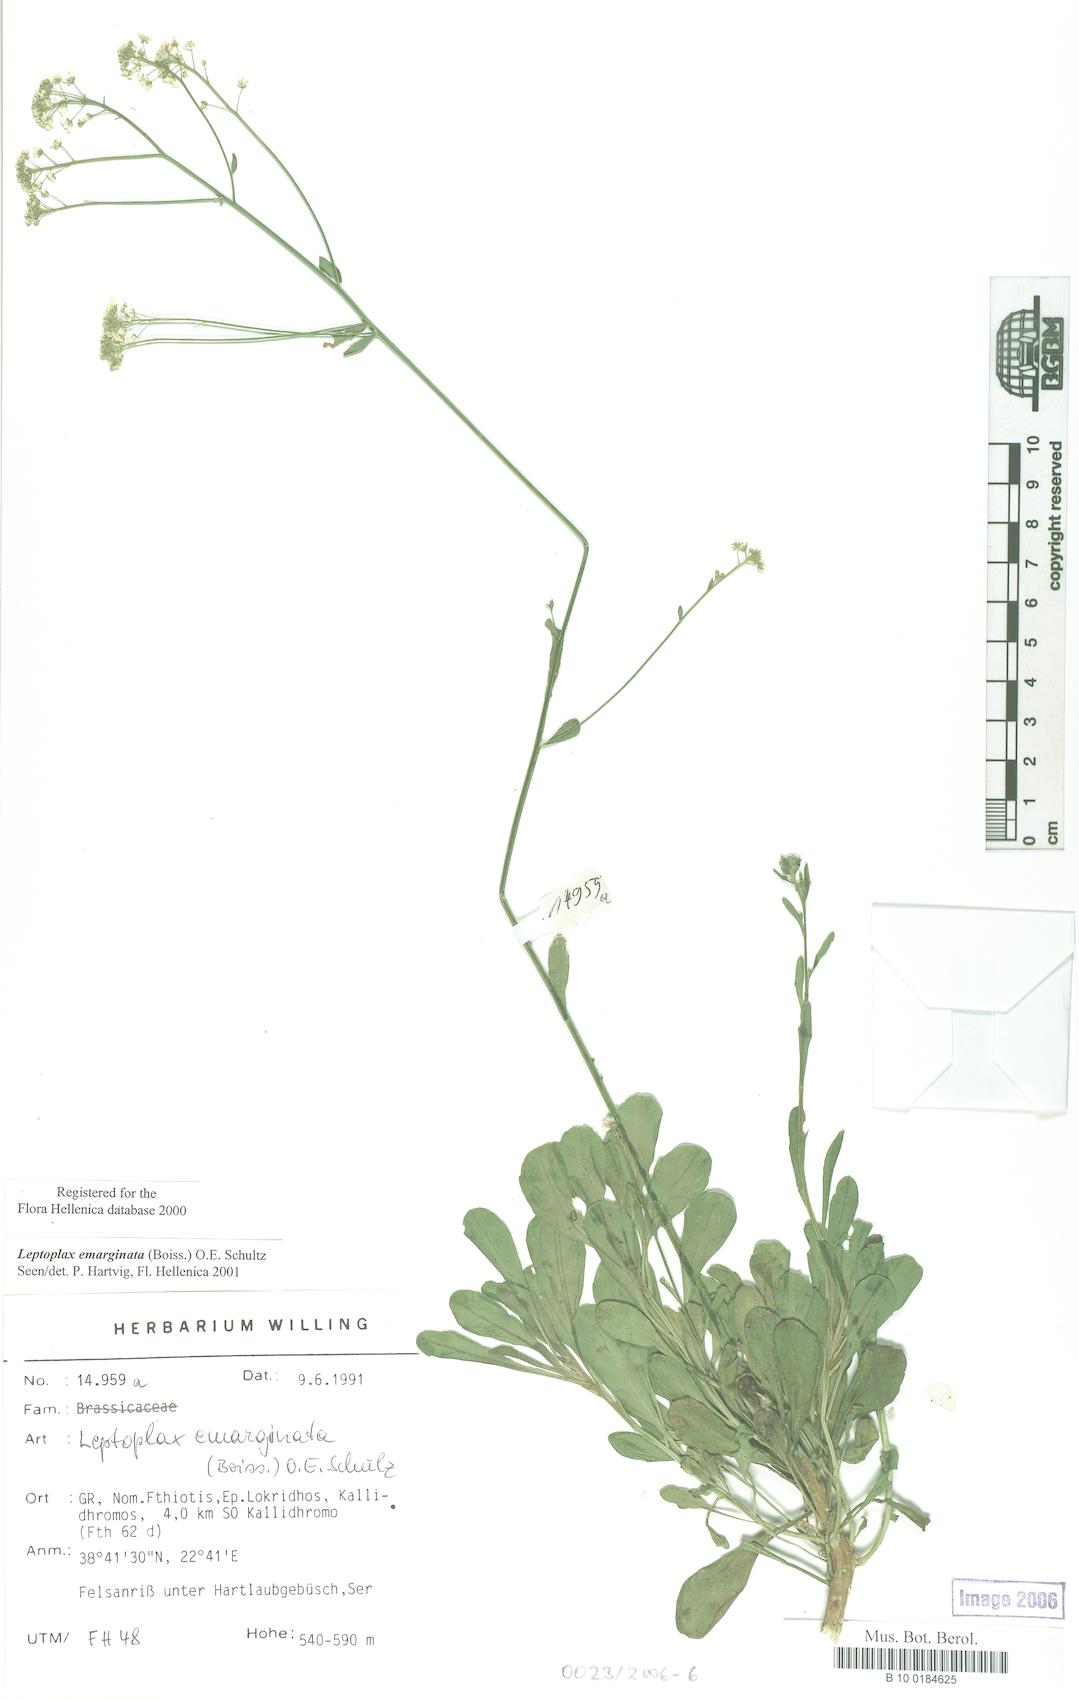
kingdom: Plantae
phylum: Tracheophyta
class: Magnoliopsida
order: Brassicales
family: Brassicaceae
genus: Bornmuellera
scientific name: Bornmuellera emarginata
